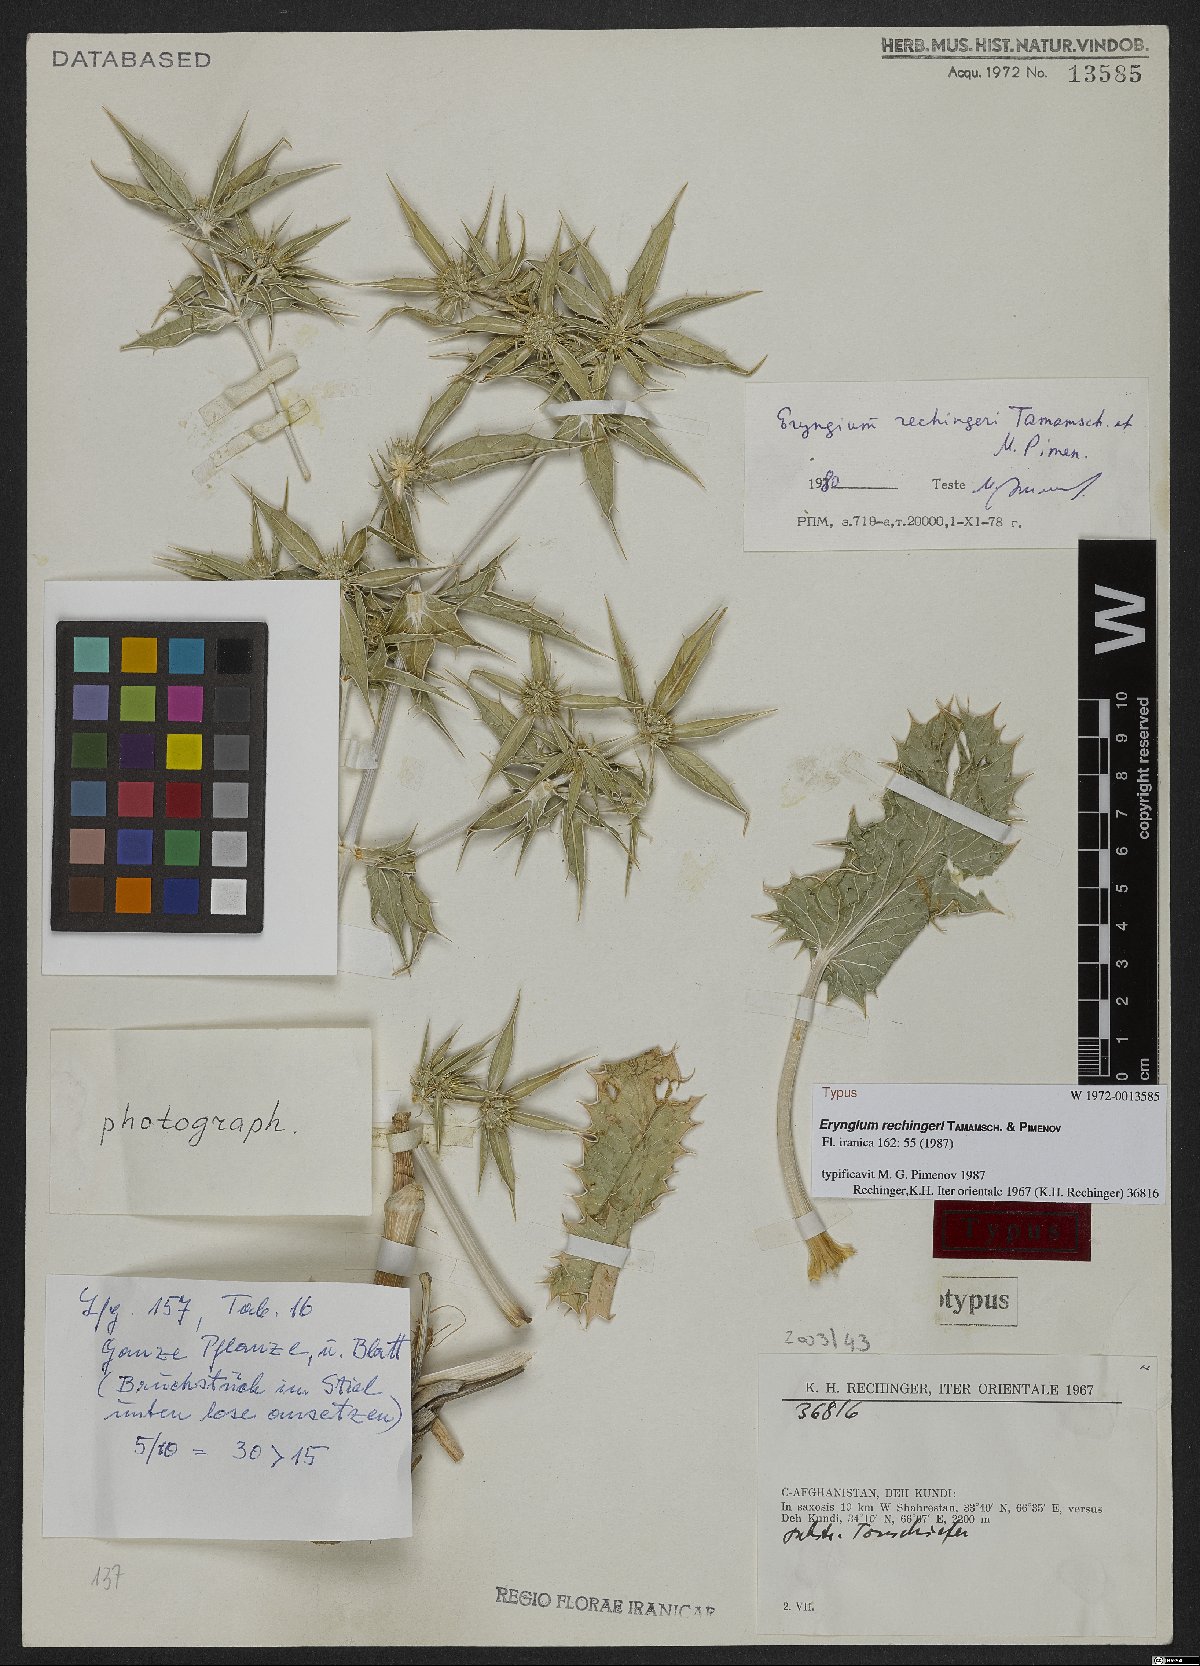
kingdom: Plantae
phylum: Tracheophyta
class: Magnoliopsida
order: Apiales
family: Apiaceae
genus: Eryngium
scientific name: Eryngium carlinoides
